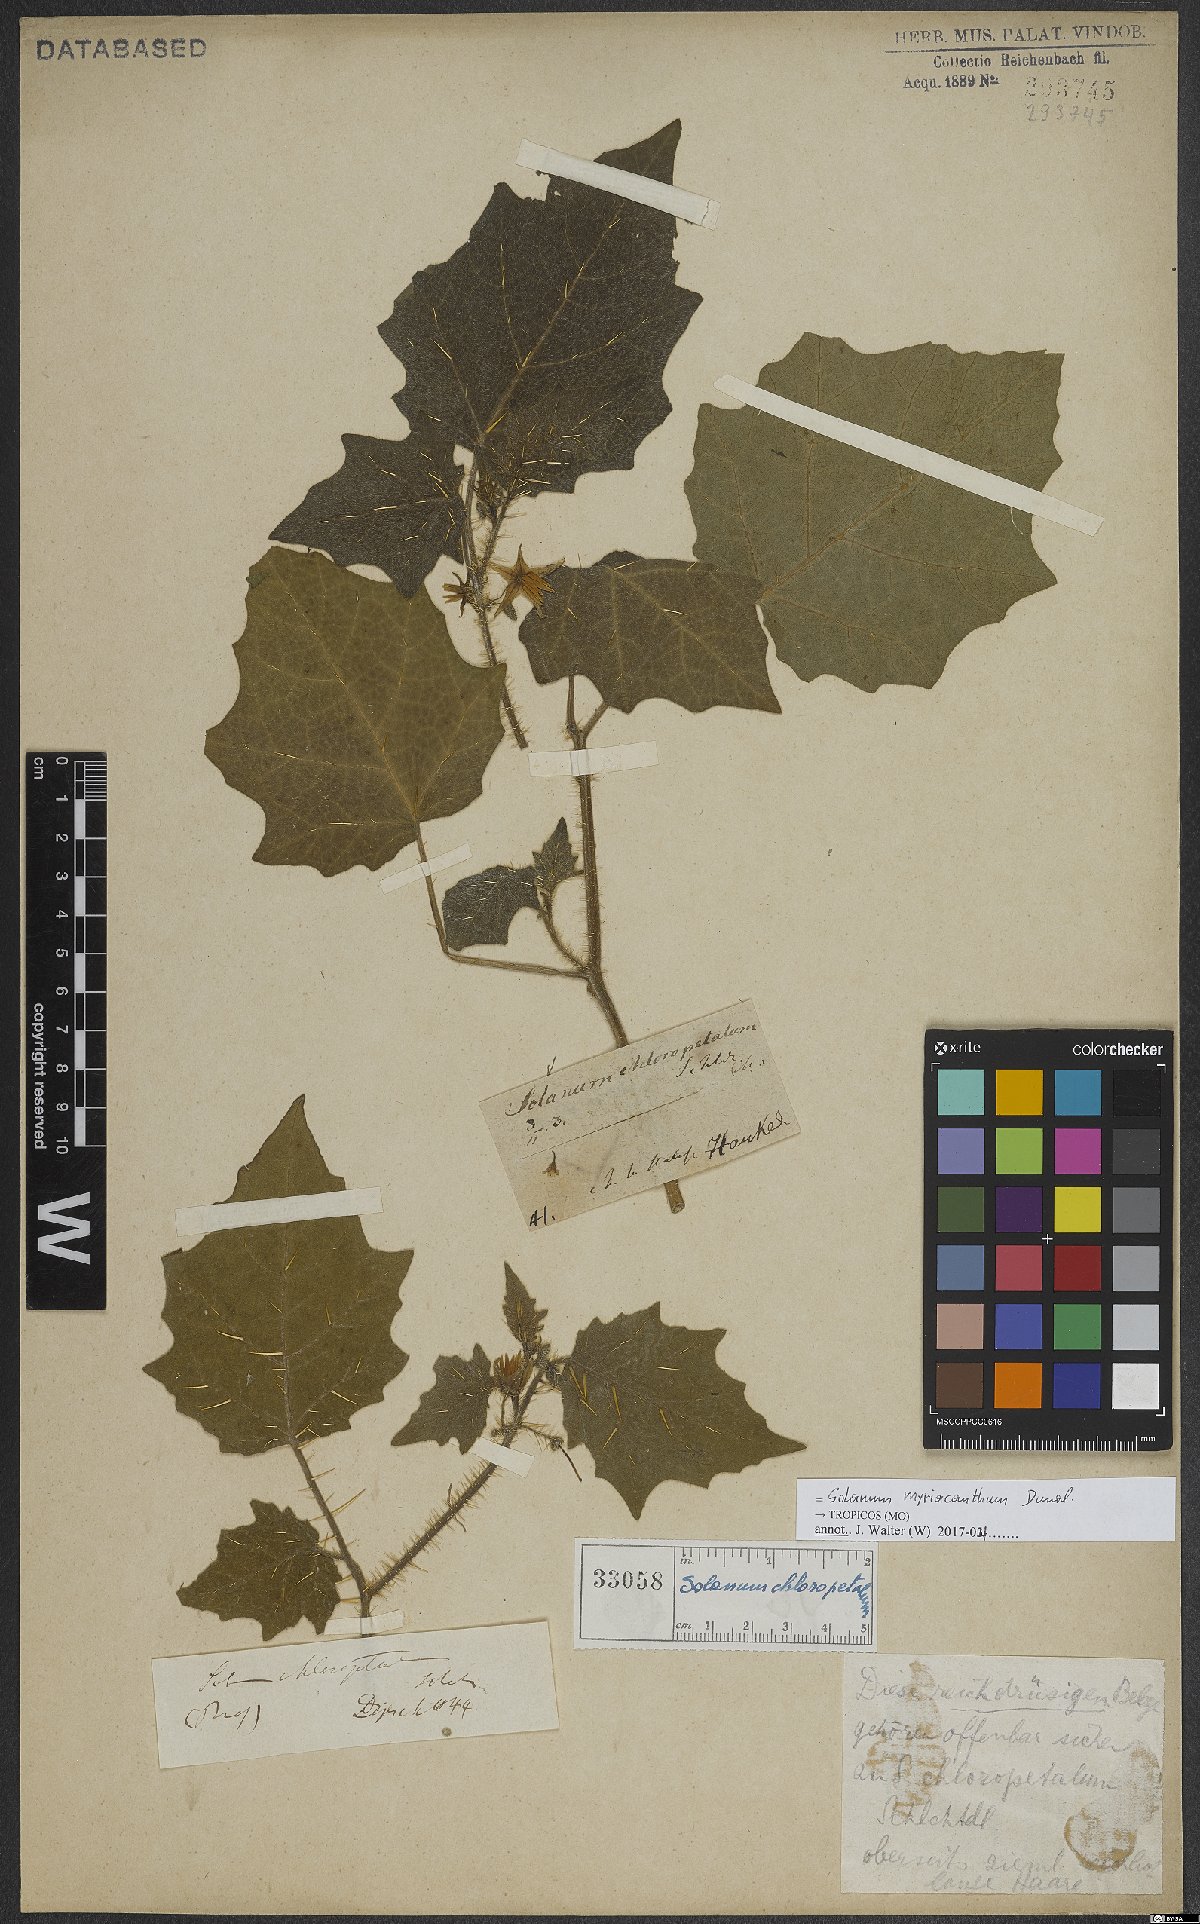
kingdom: Plantae
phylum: Tracheophyta
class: Magnoliopsida
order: Solanales
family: Solanaceae
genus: Solanum
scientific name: Solanum myriacanthum
